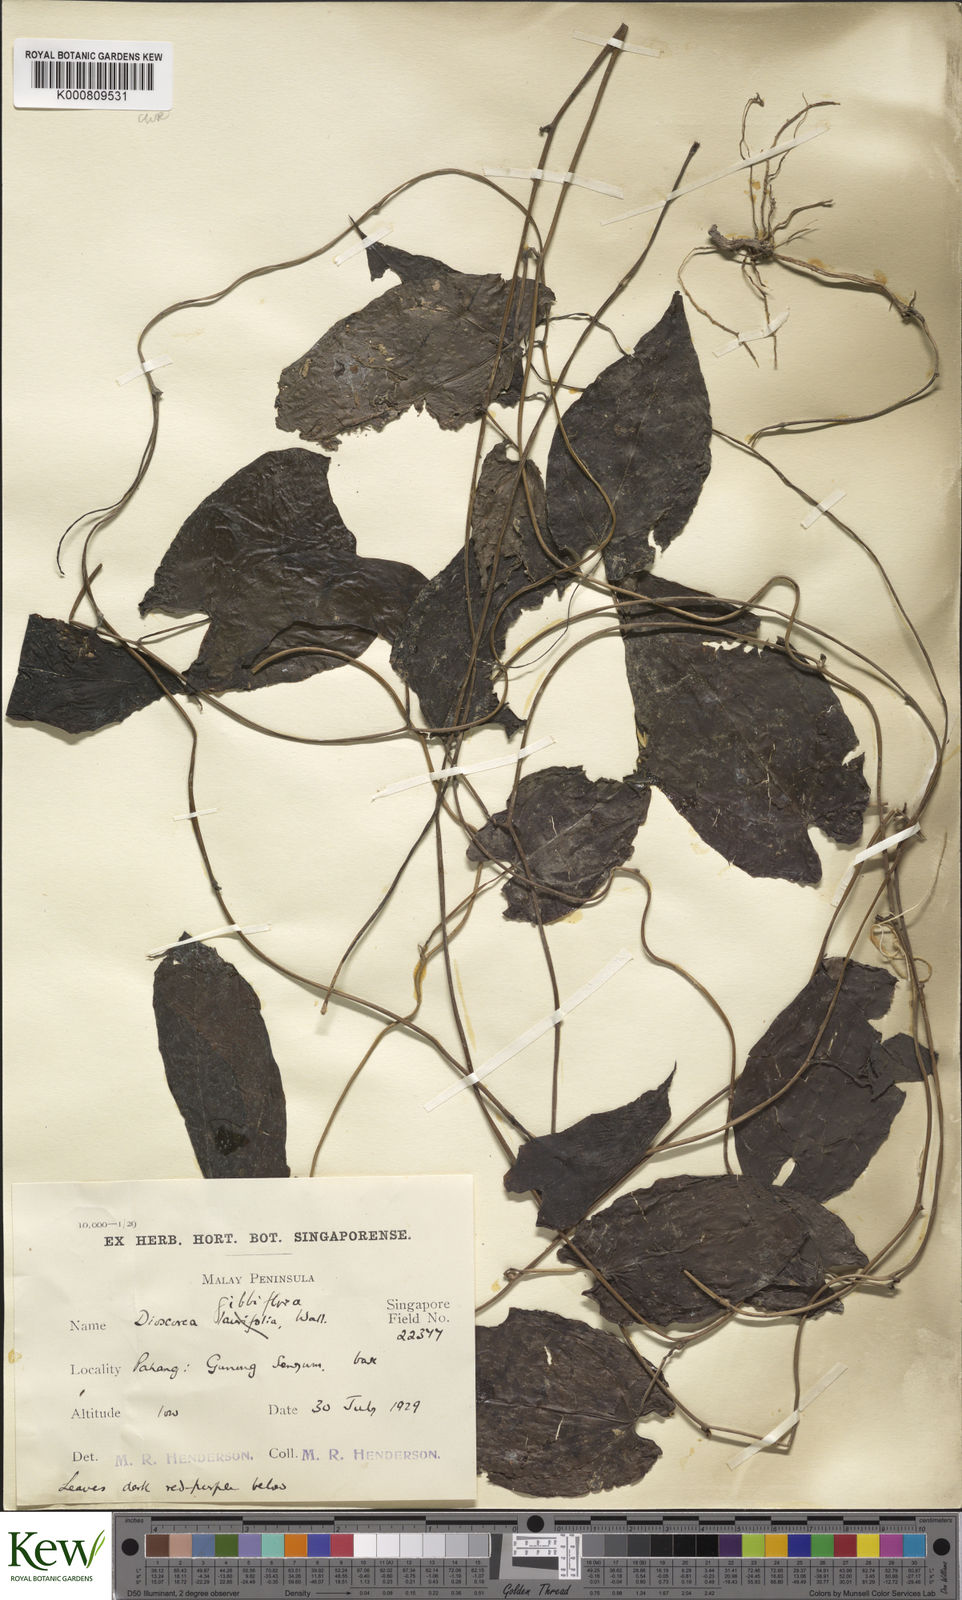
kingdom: Plantae
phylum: Tracheophyta
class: Liliopsida
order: Dioscoreales
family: Dioscoreaceae
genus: Dioscorea
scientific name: Dioscorea filiformis
